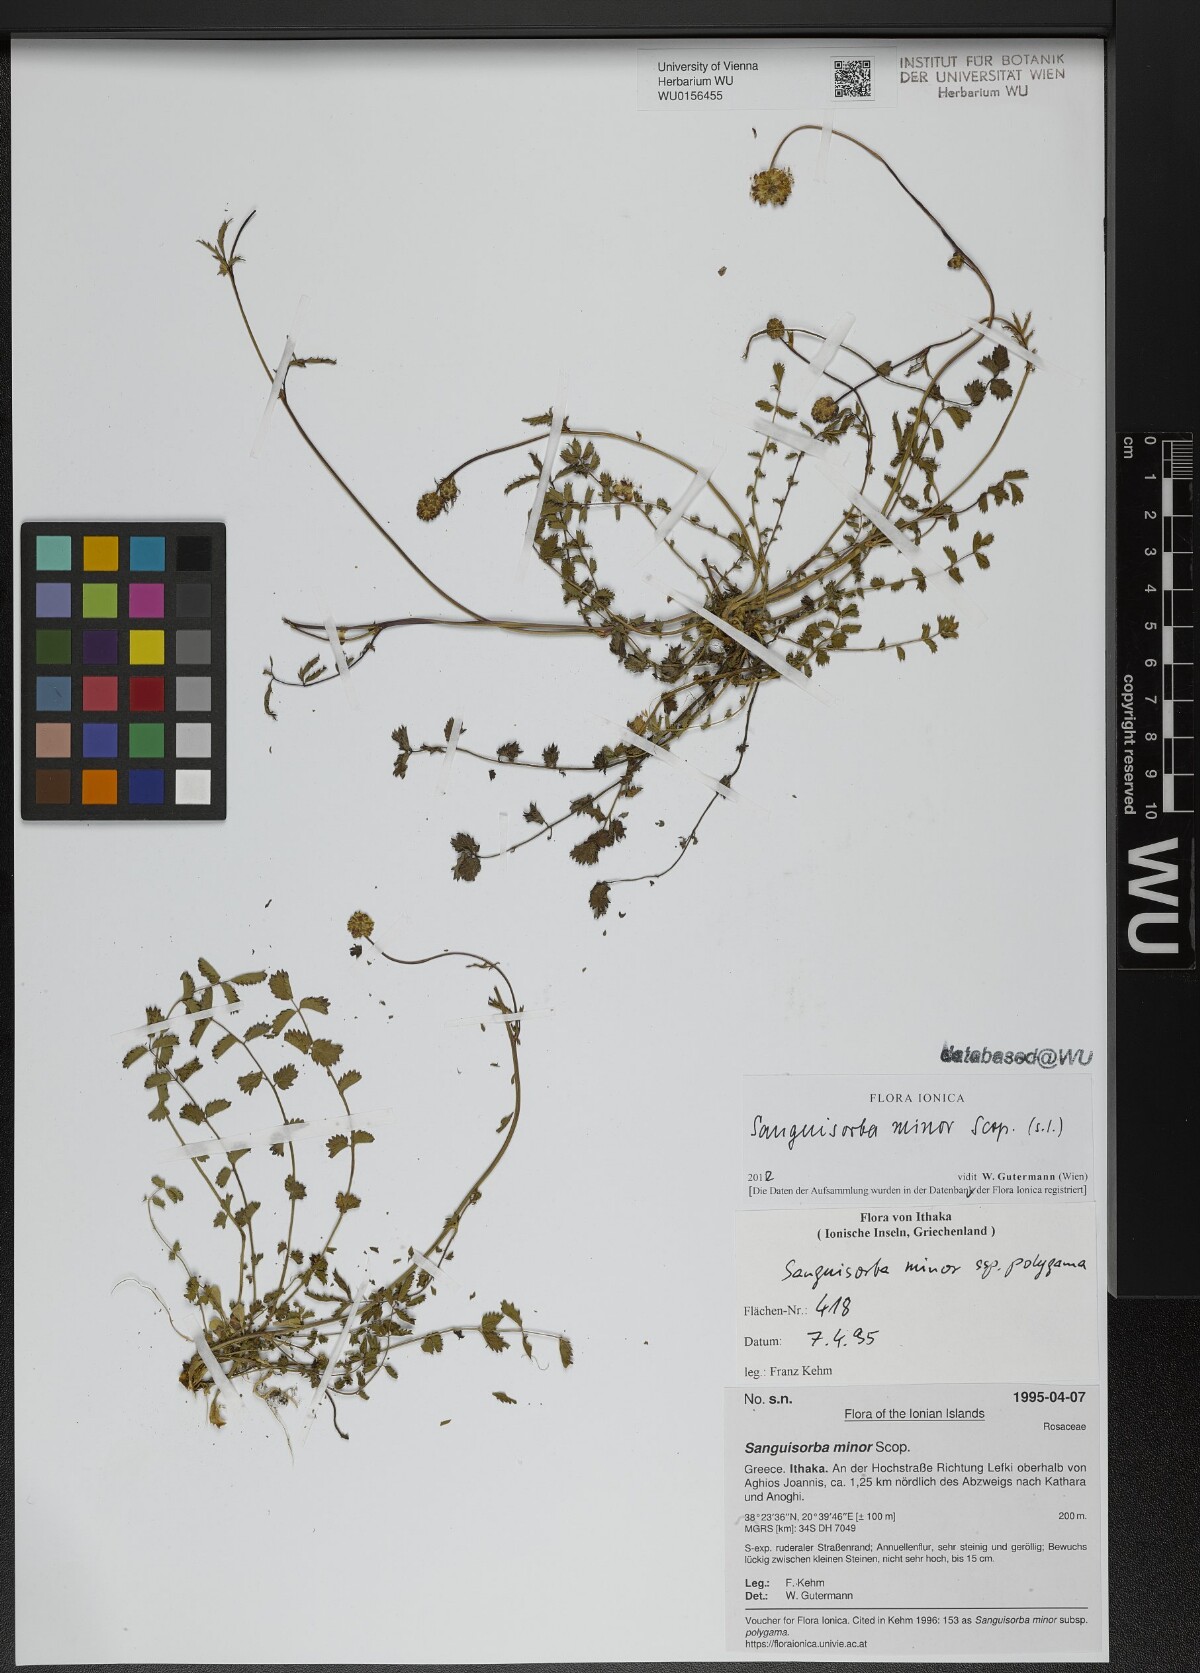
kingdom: Plantae
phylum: Tracheophyta
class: Magnoliopsida
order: Rosales
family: Rosaceae
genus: Poterium
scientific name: Poterium sanguisorba
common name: Salad burnet
